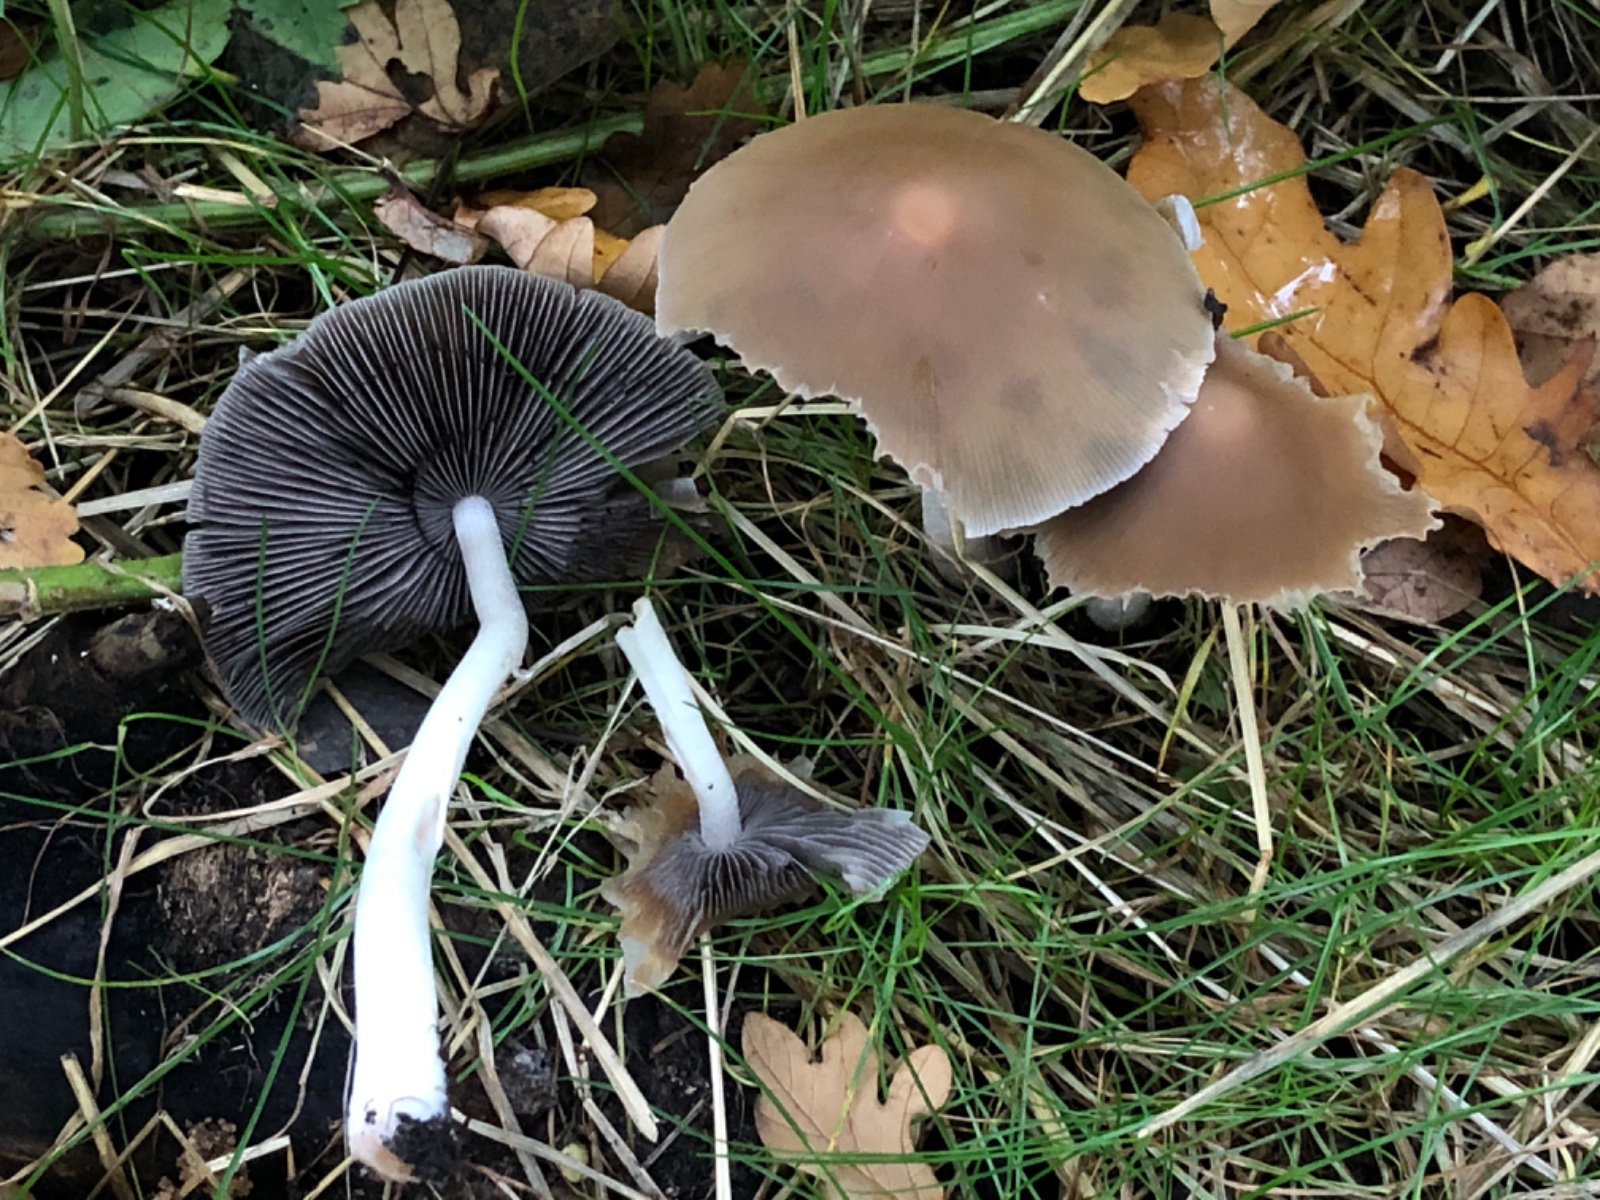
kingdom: Fungi
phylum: Basidiomycota
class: Agaricomycetes
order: Agaricales
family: Psathyrellaceae
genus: Psathyrella
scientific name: Psathyrella piluliformis
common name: lysstokket mørkhat
